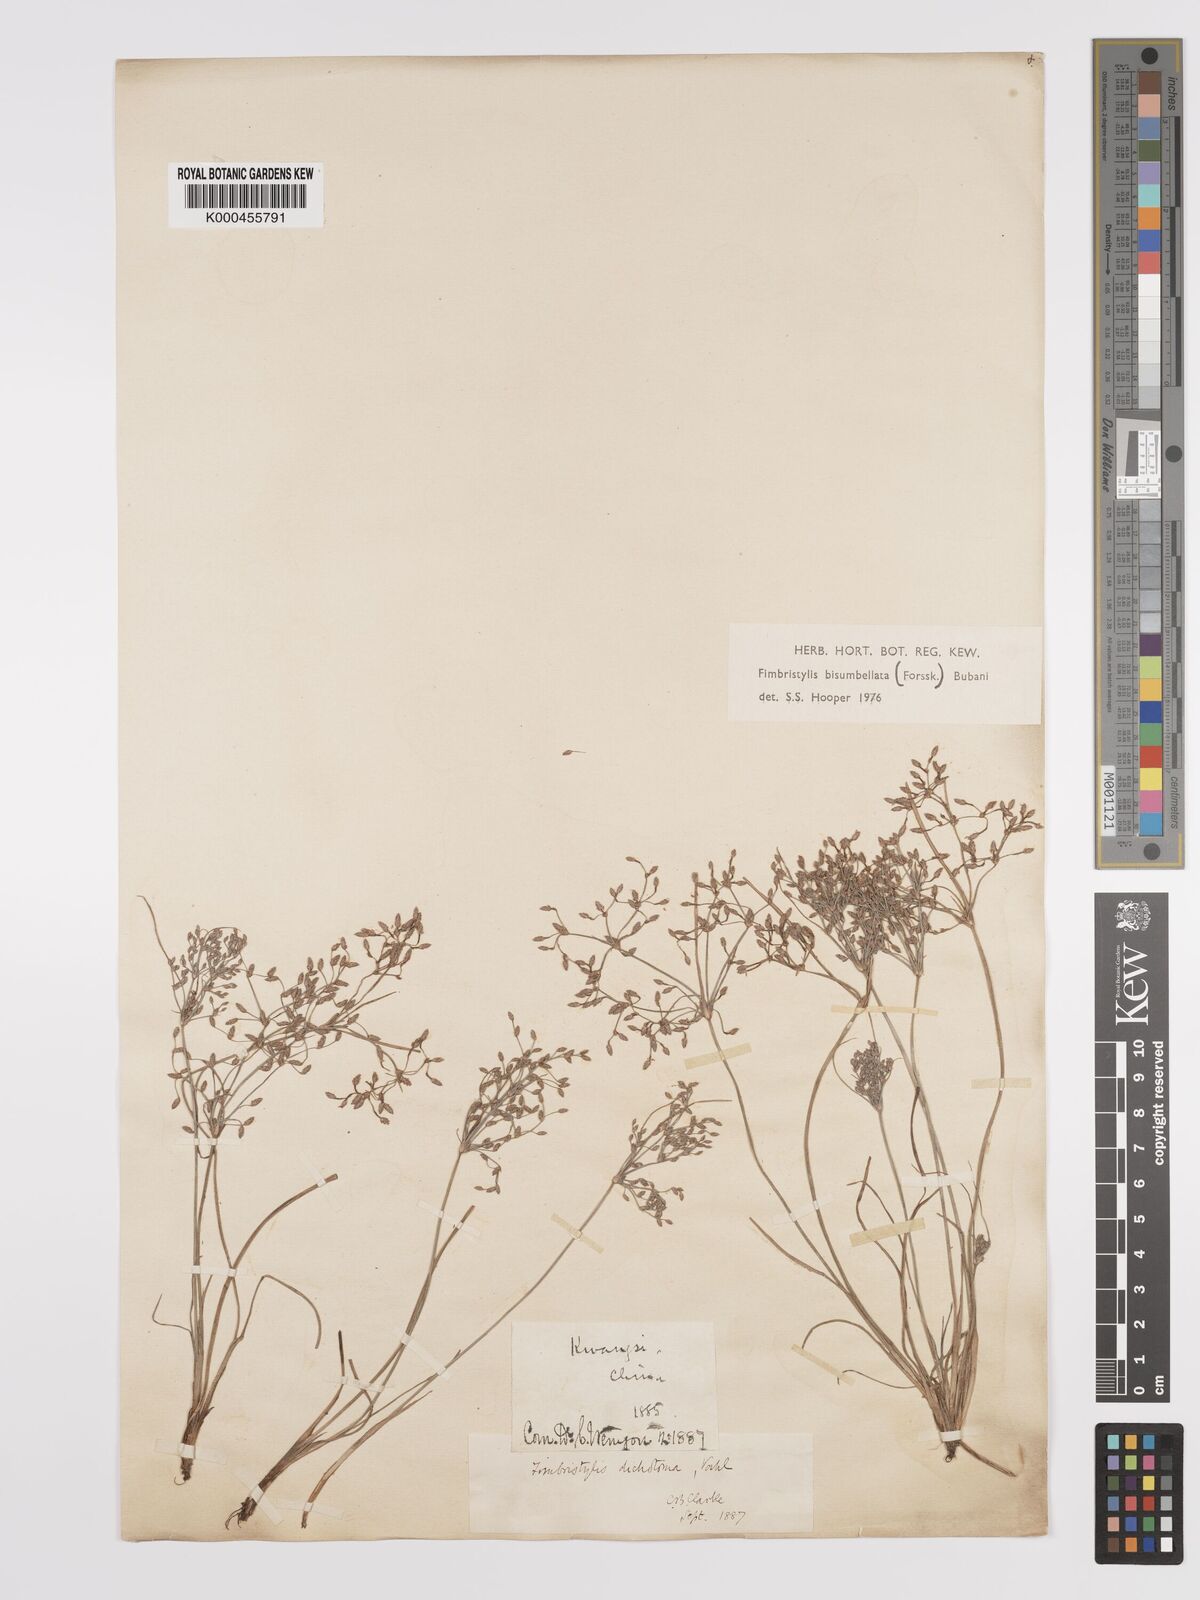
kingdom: Plantae
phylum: Tracheophyta
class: Liliopsida
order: Poales
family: Cyperaceae
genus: Fimbristylis
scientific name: Fimbristylis dichotoma
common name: Forked fimbry
